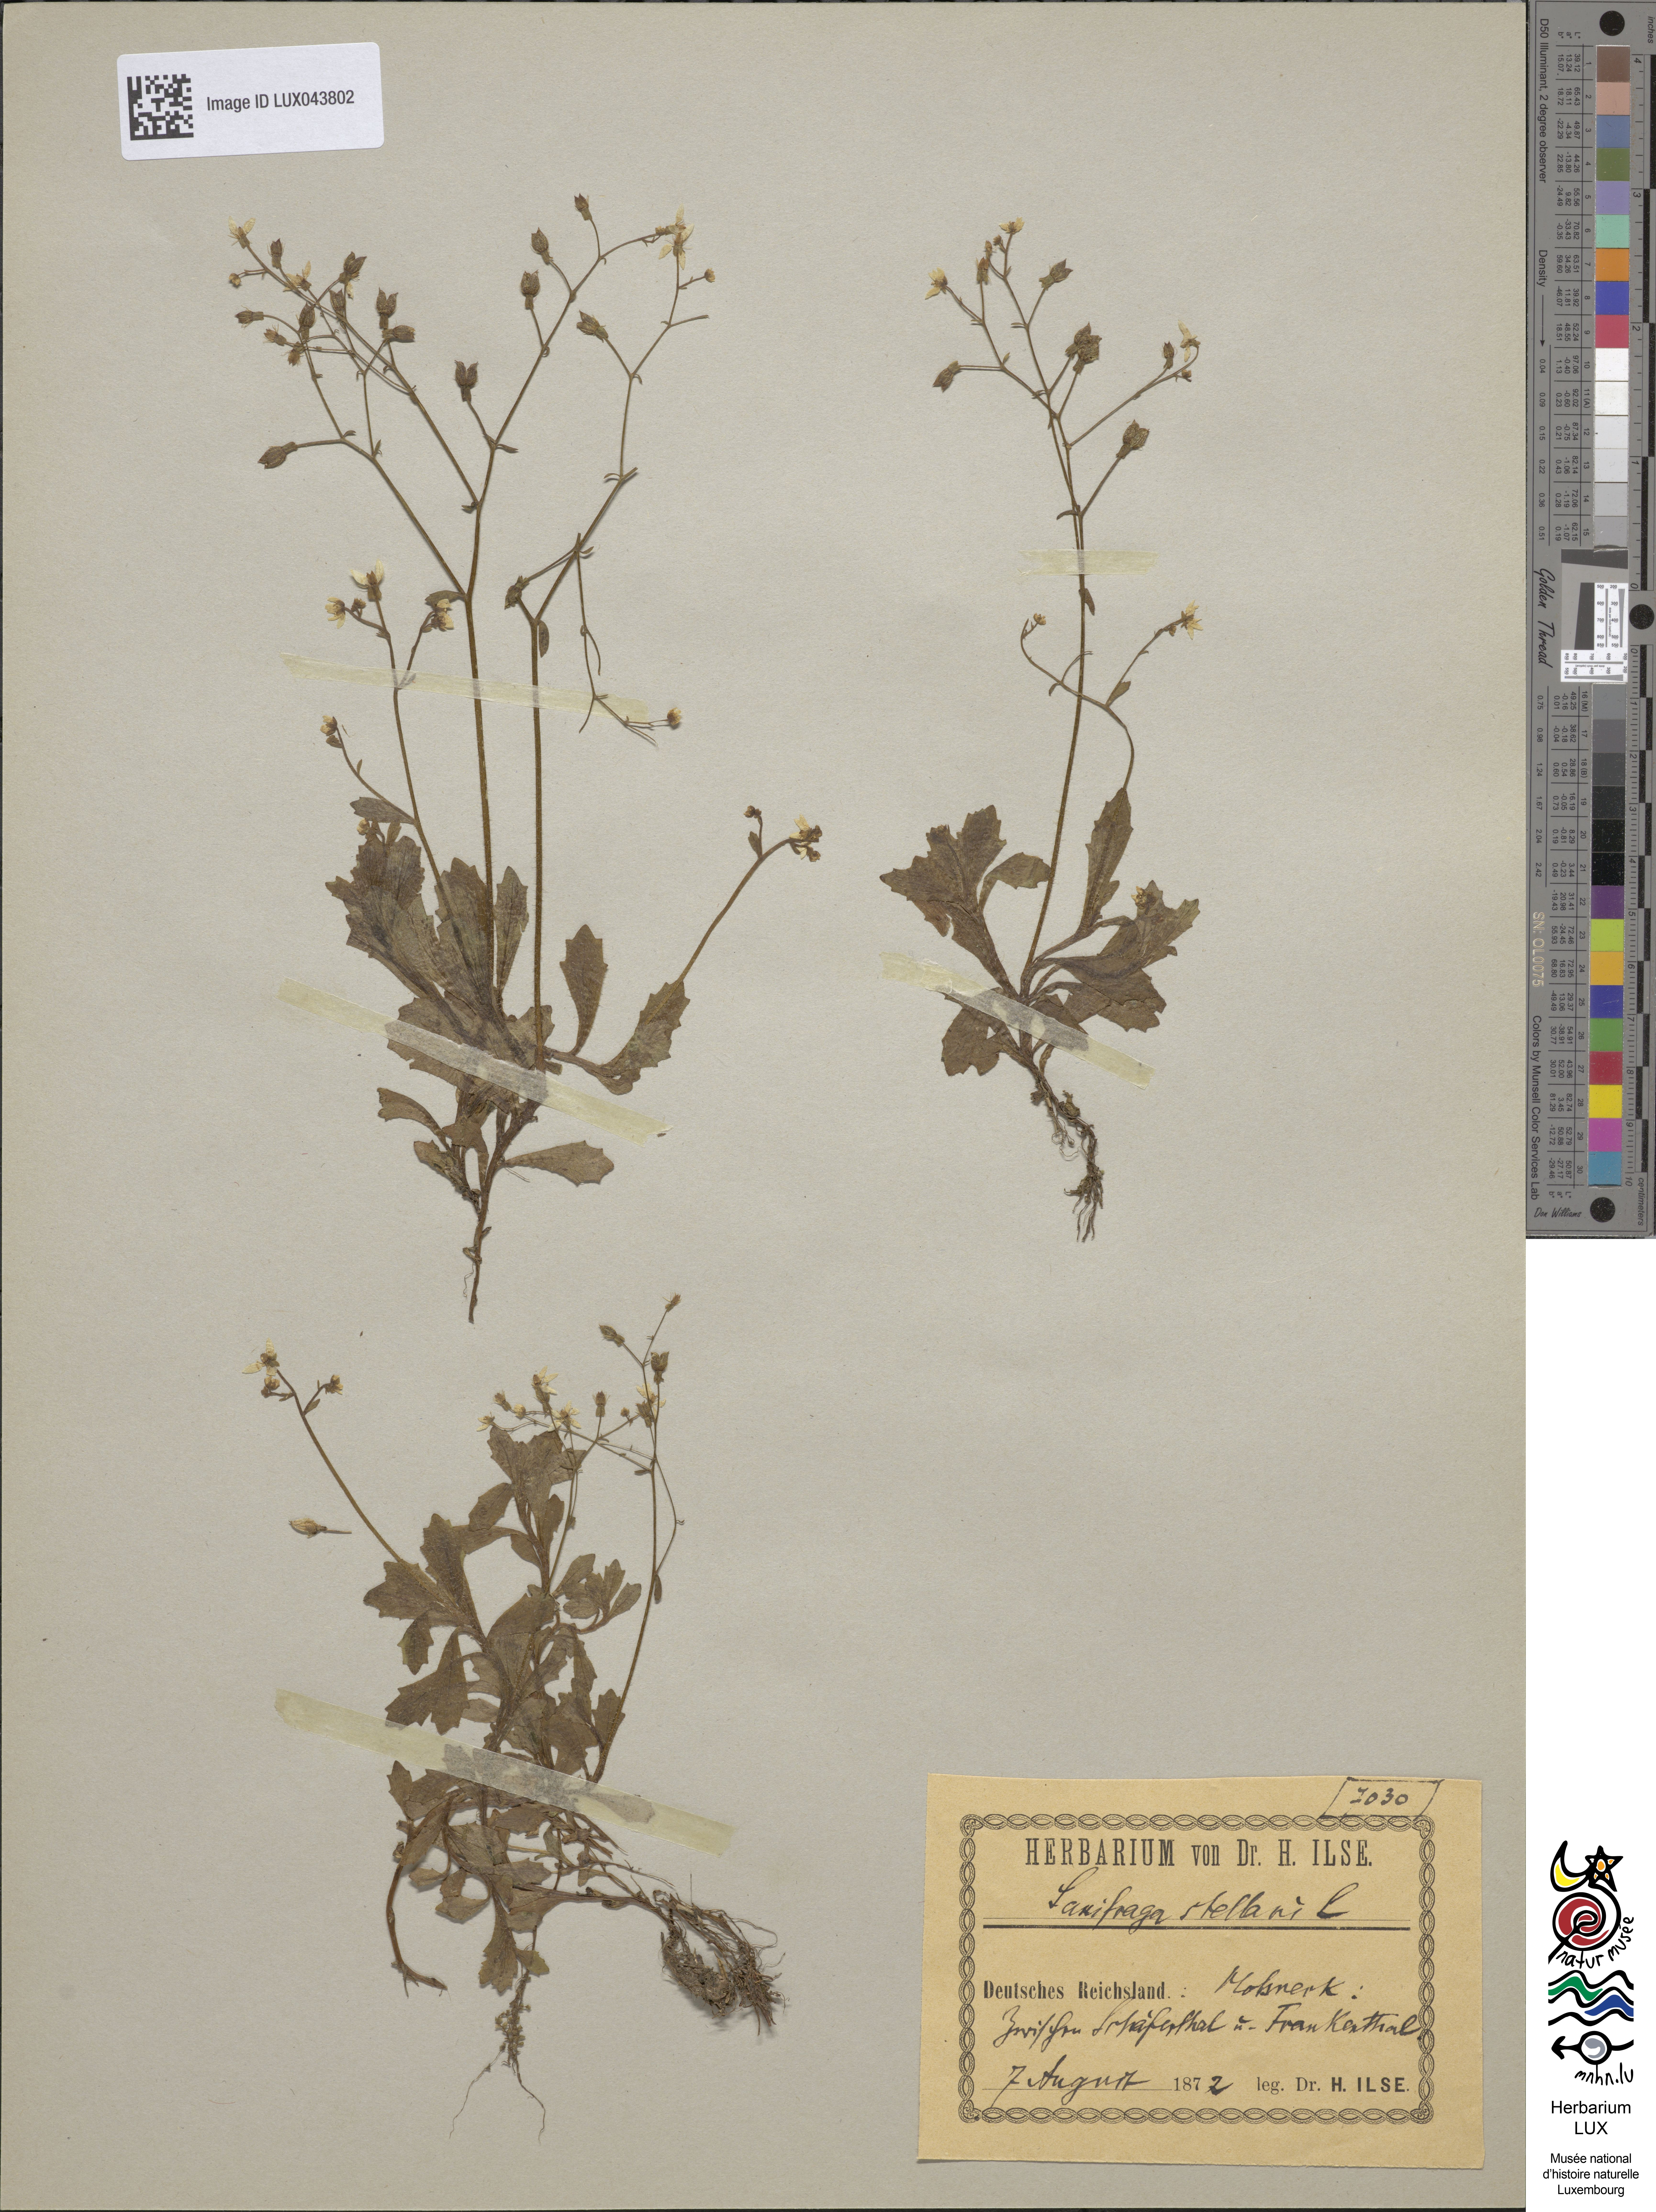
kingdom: Plantae
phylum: Tracheophyta
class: Magnoliopsida
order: Saxifragales
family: Saxifragaceae
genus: Micranthes
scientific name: Micranthes stellaris
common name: Starry saxifrage
